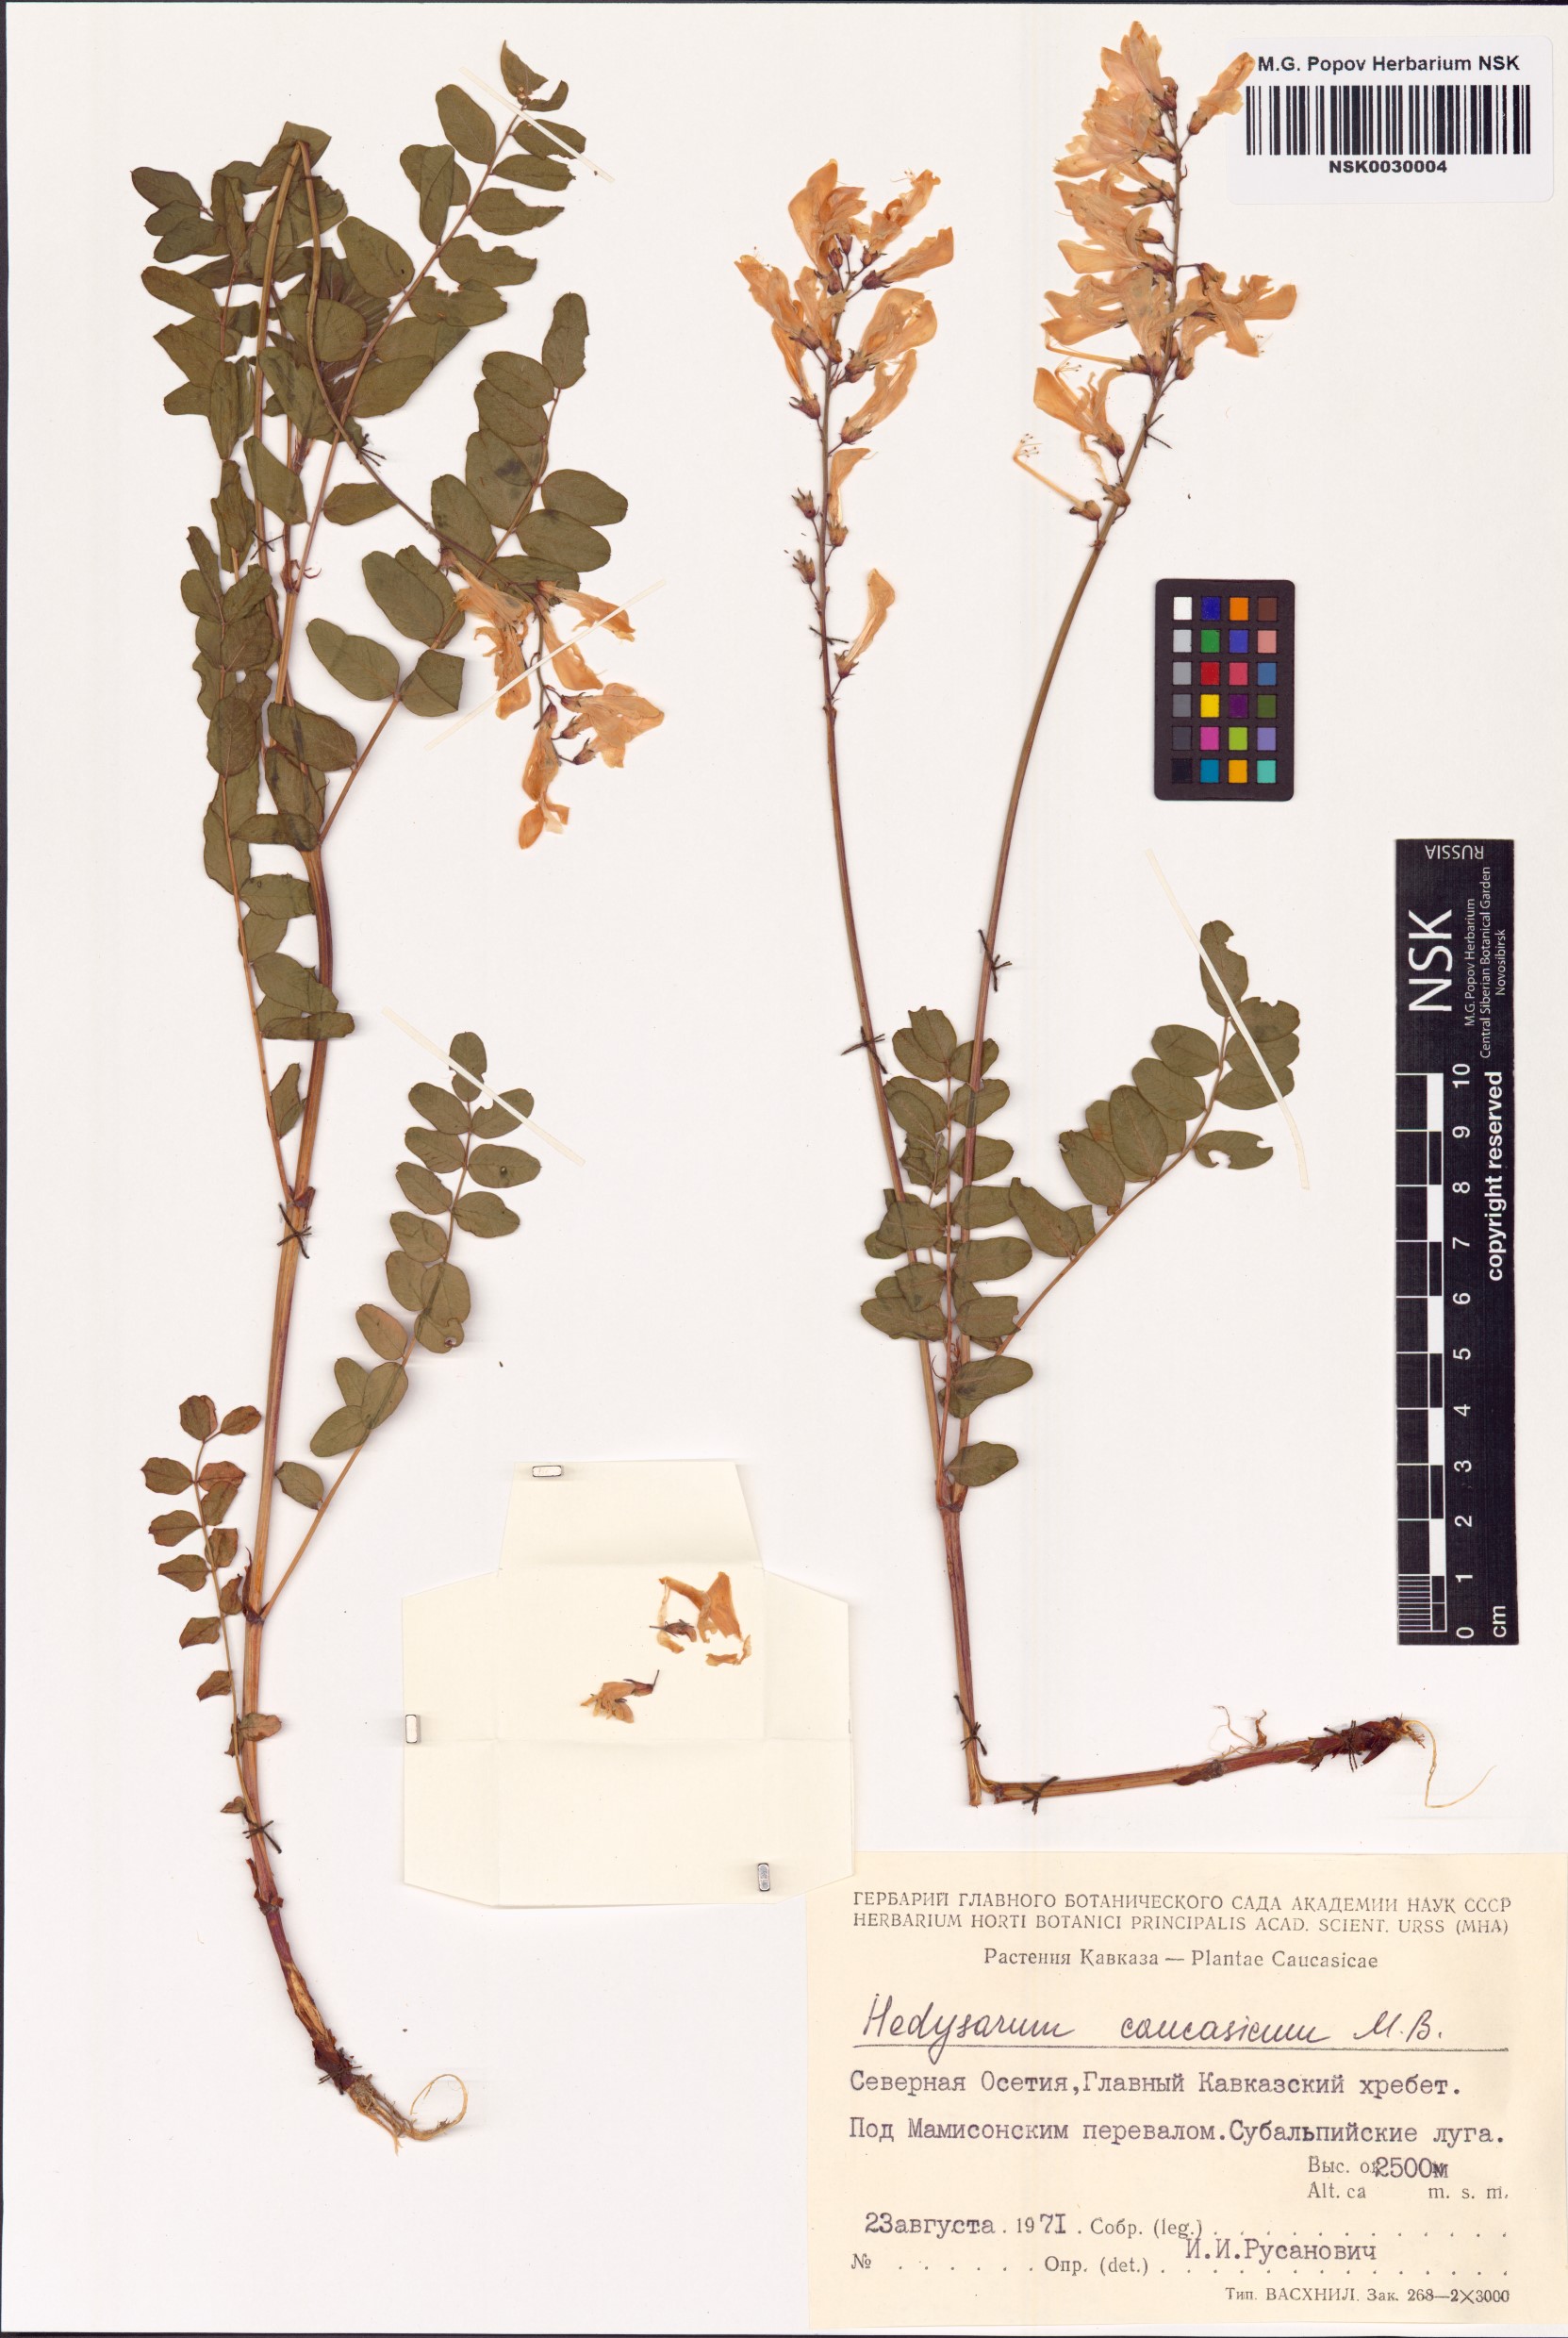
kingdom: Plantae
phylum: Tracheophyta
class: Magnoliopsida
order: Fabales
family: Fabaceae
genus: Hedysarum
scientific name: Hedysarum caucasicum
